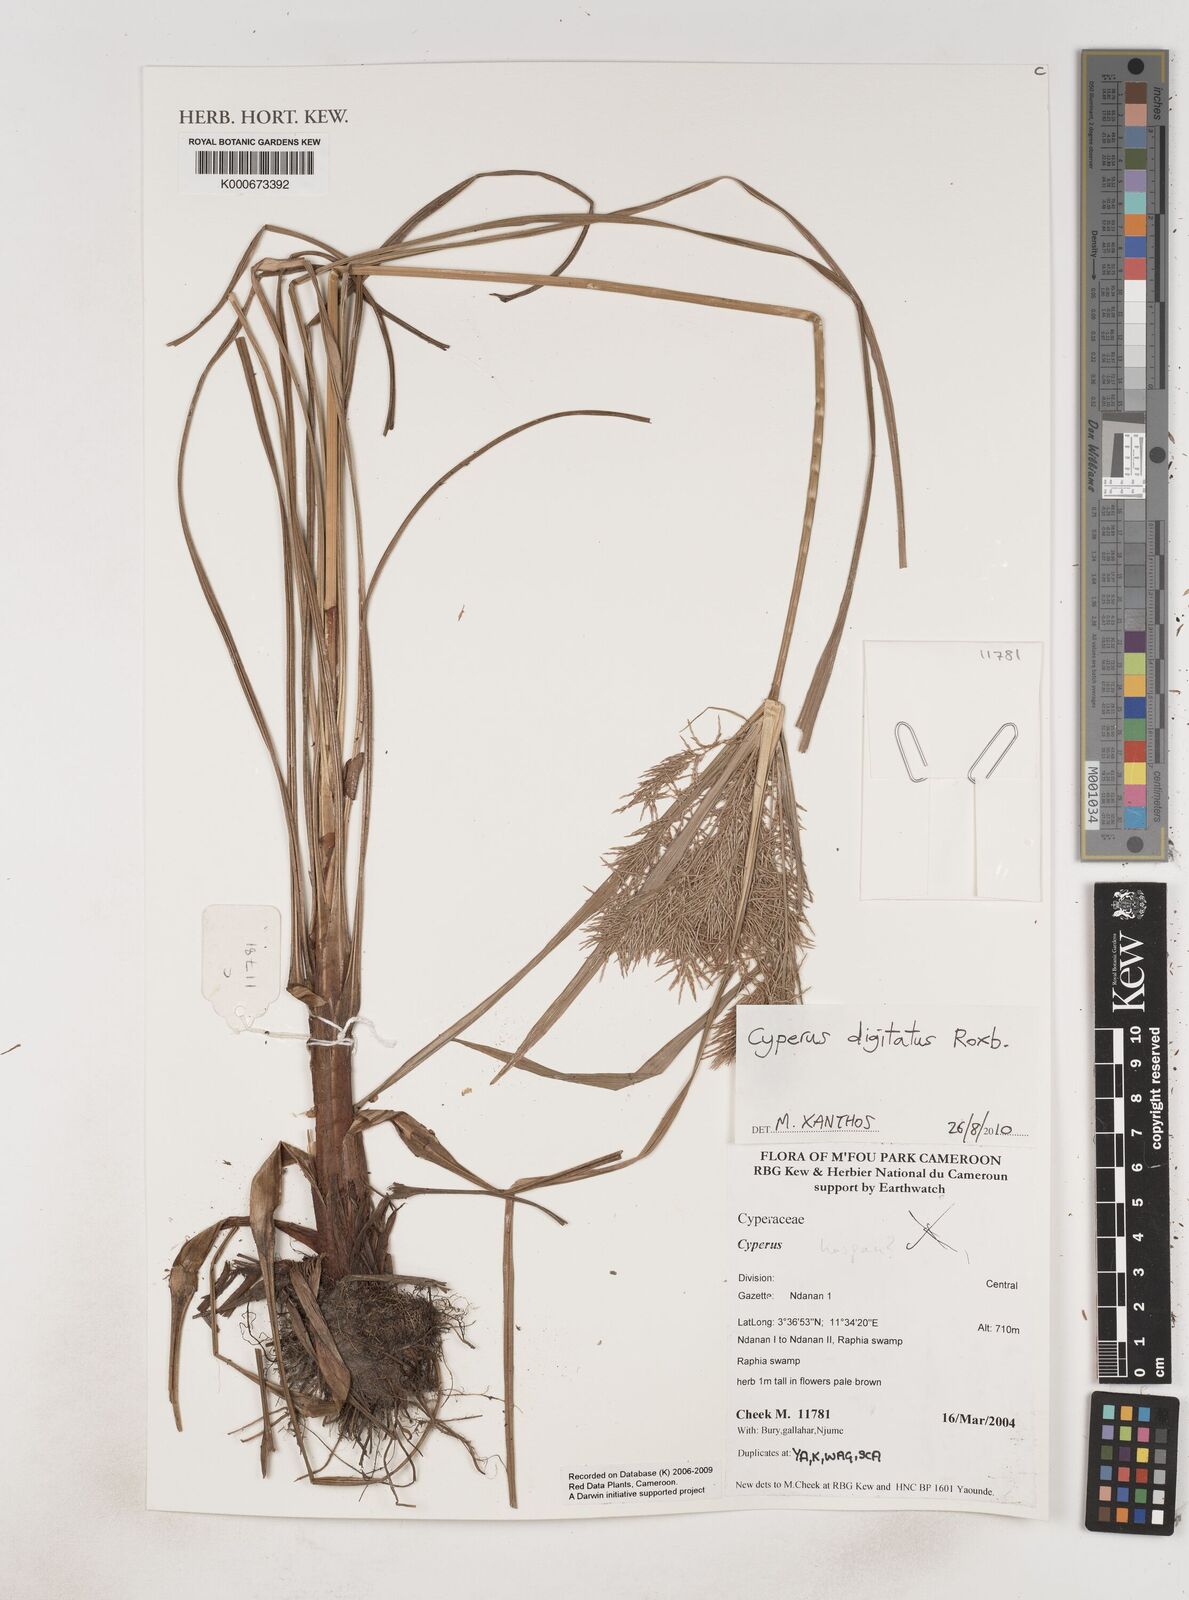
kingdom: Plantae
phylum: Tracheophyta
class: Liliopsida
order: Poales
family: Cyperaceae
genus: Cyperus
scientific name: Cyperus digitatus
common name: Finger flatsedge
